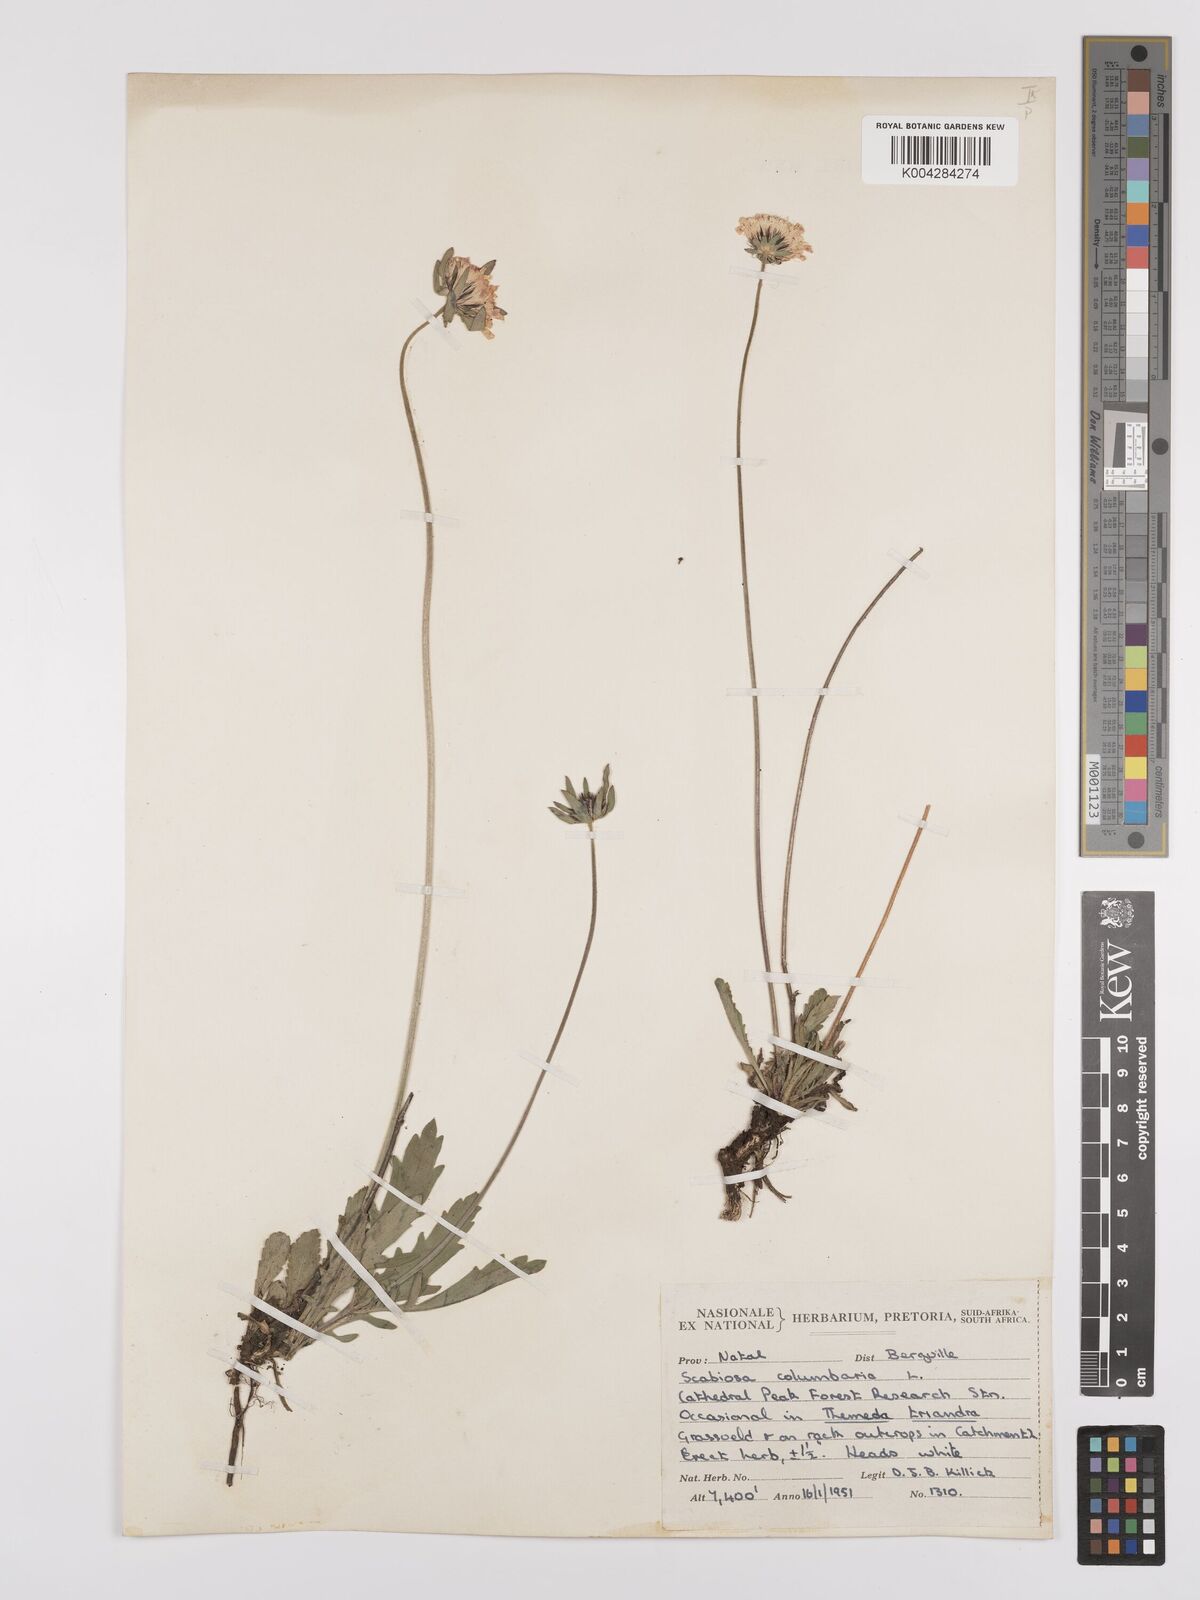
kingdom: Plantae
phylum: Tracheophyta
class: Magnoliopsida
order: Dipsacales
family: Caprifoliaceae
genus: Scabiosa
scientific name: Scabiosa columbaria
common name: Small scabious
